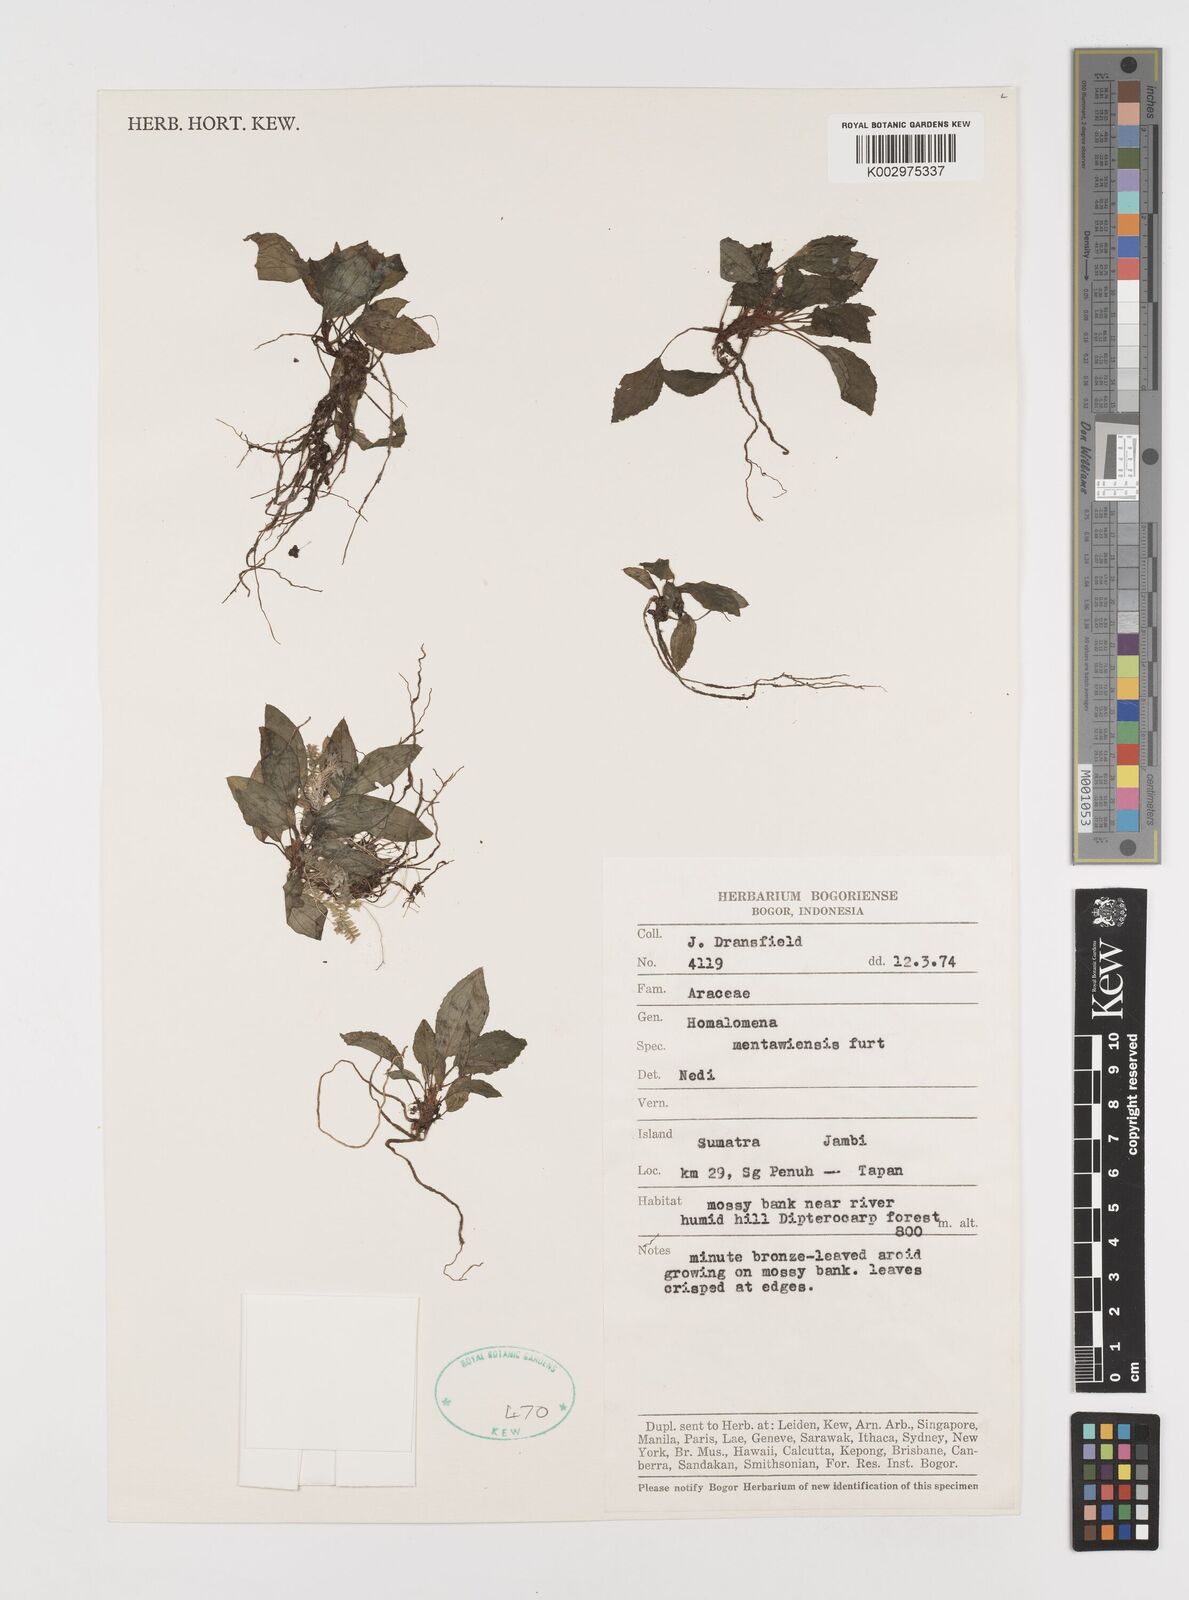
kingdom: Plantae
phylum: Tracheophyta
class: Liliopsida
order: Alismatales
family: Araceae
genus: Homalomena
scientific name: Homalomena humilis
